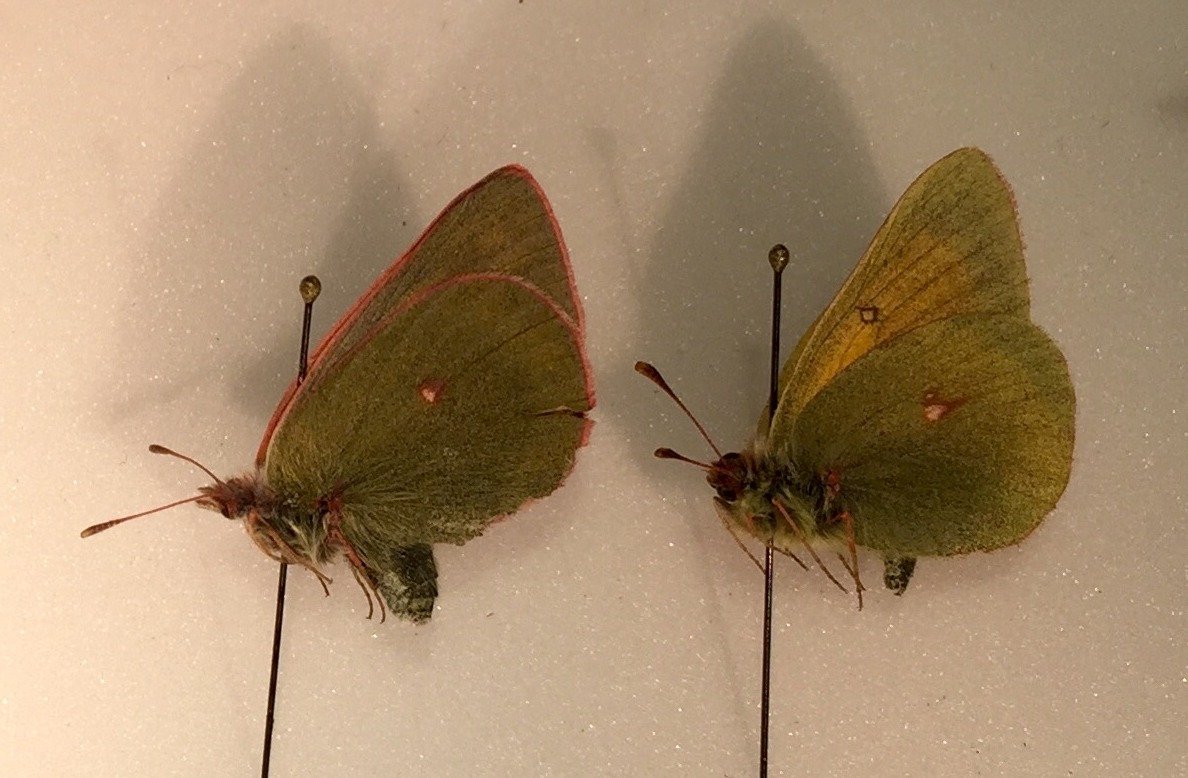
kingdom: Animalia
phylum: Arthropoda
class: Insecta
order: Lepidoptera
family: Pieridae
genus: Colias
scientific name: Colias hecla
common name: Hecla Sulphur
